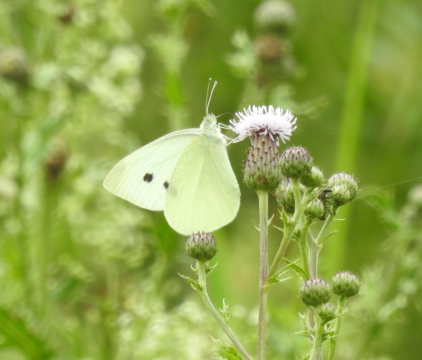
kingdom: Animalia
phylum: Arthropoda
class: Insecta
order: Lepidoptera
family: Pieridae
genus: Pieris
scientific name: Pieris rapae
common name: Cabbage White
